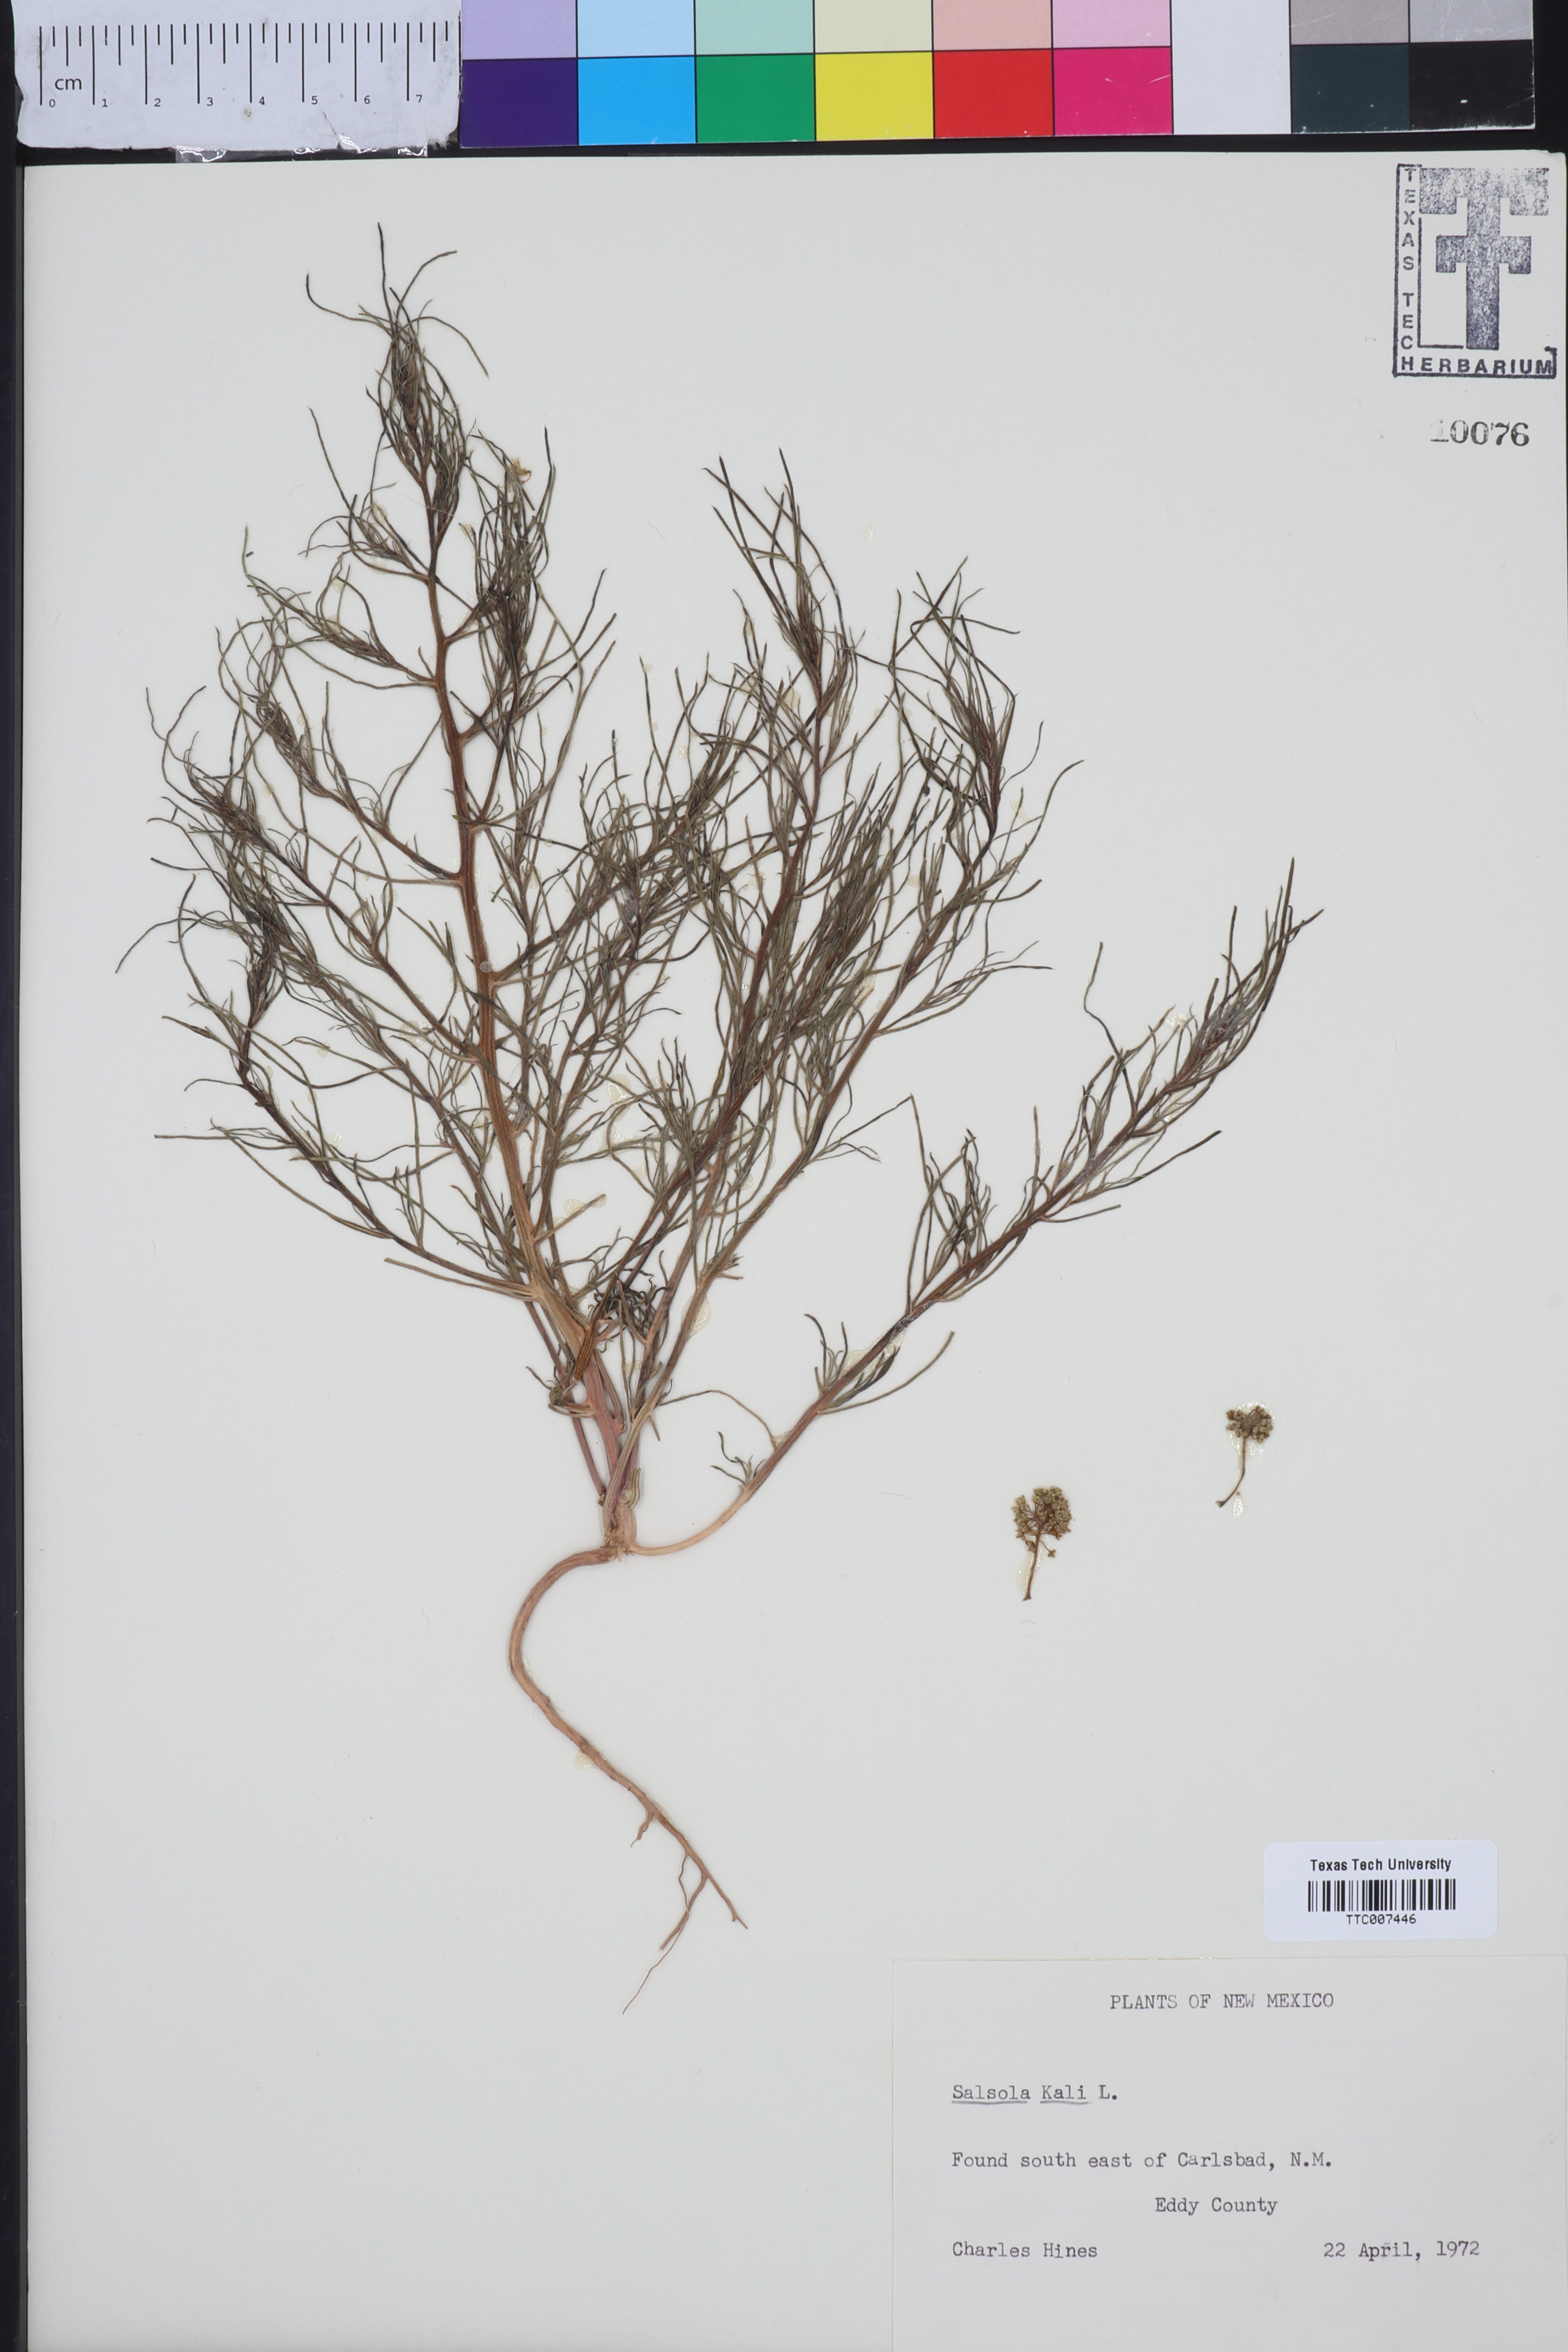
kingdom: Plantae
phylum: Tracheophyta
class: Magnoliopsida
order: Caryophyllales
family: Amaranthaceae
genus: Salsola
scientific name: Salsola kali
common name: Saltwort
